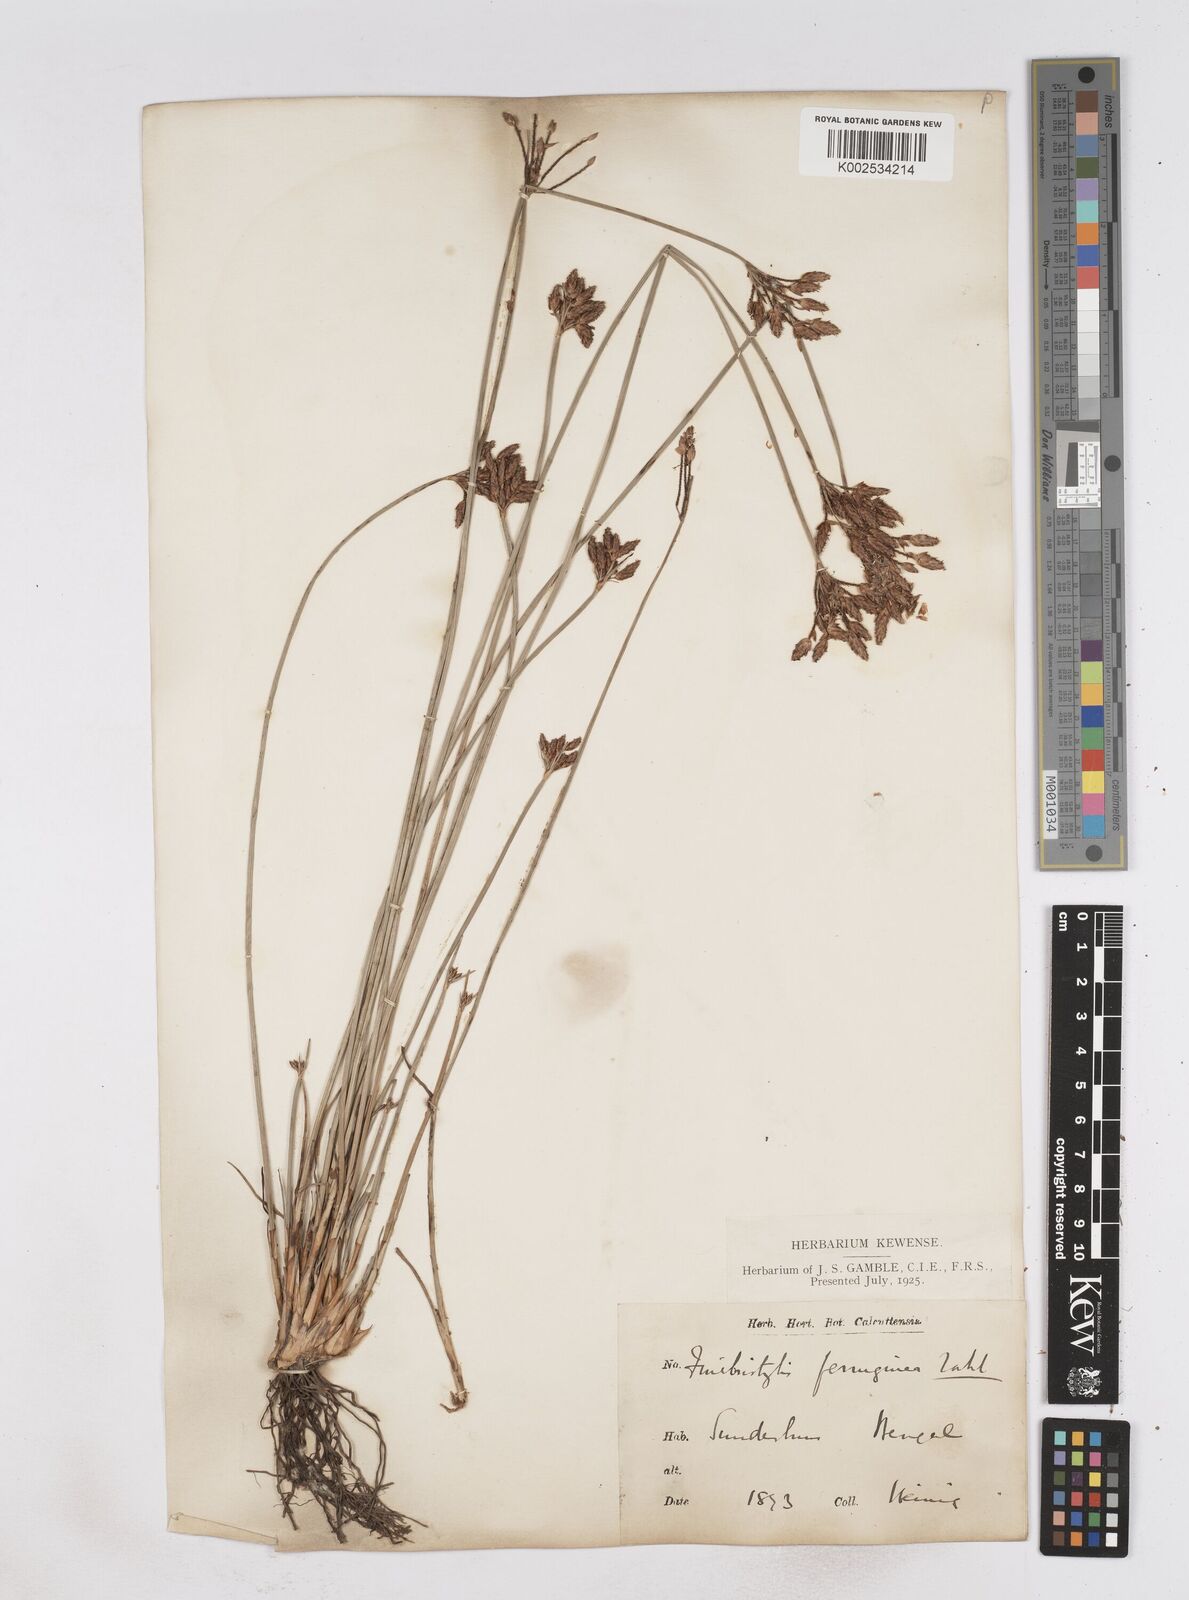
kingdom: Plantae
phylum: Tracheophyta
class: Liliopsida
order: Poales
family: Cyperaceae
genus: Fimbristylis
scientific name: Fimbristylis ferruginea
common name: West indian fimbry
